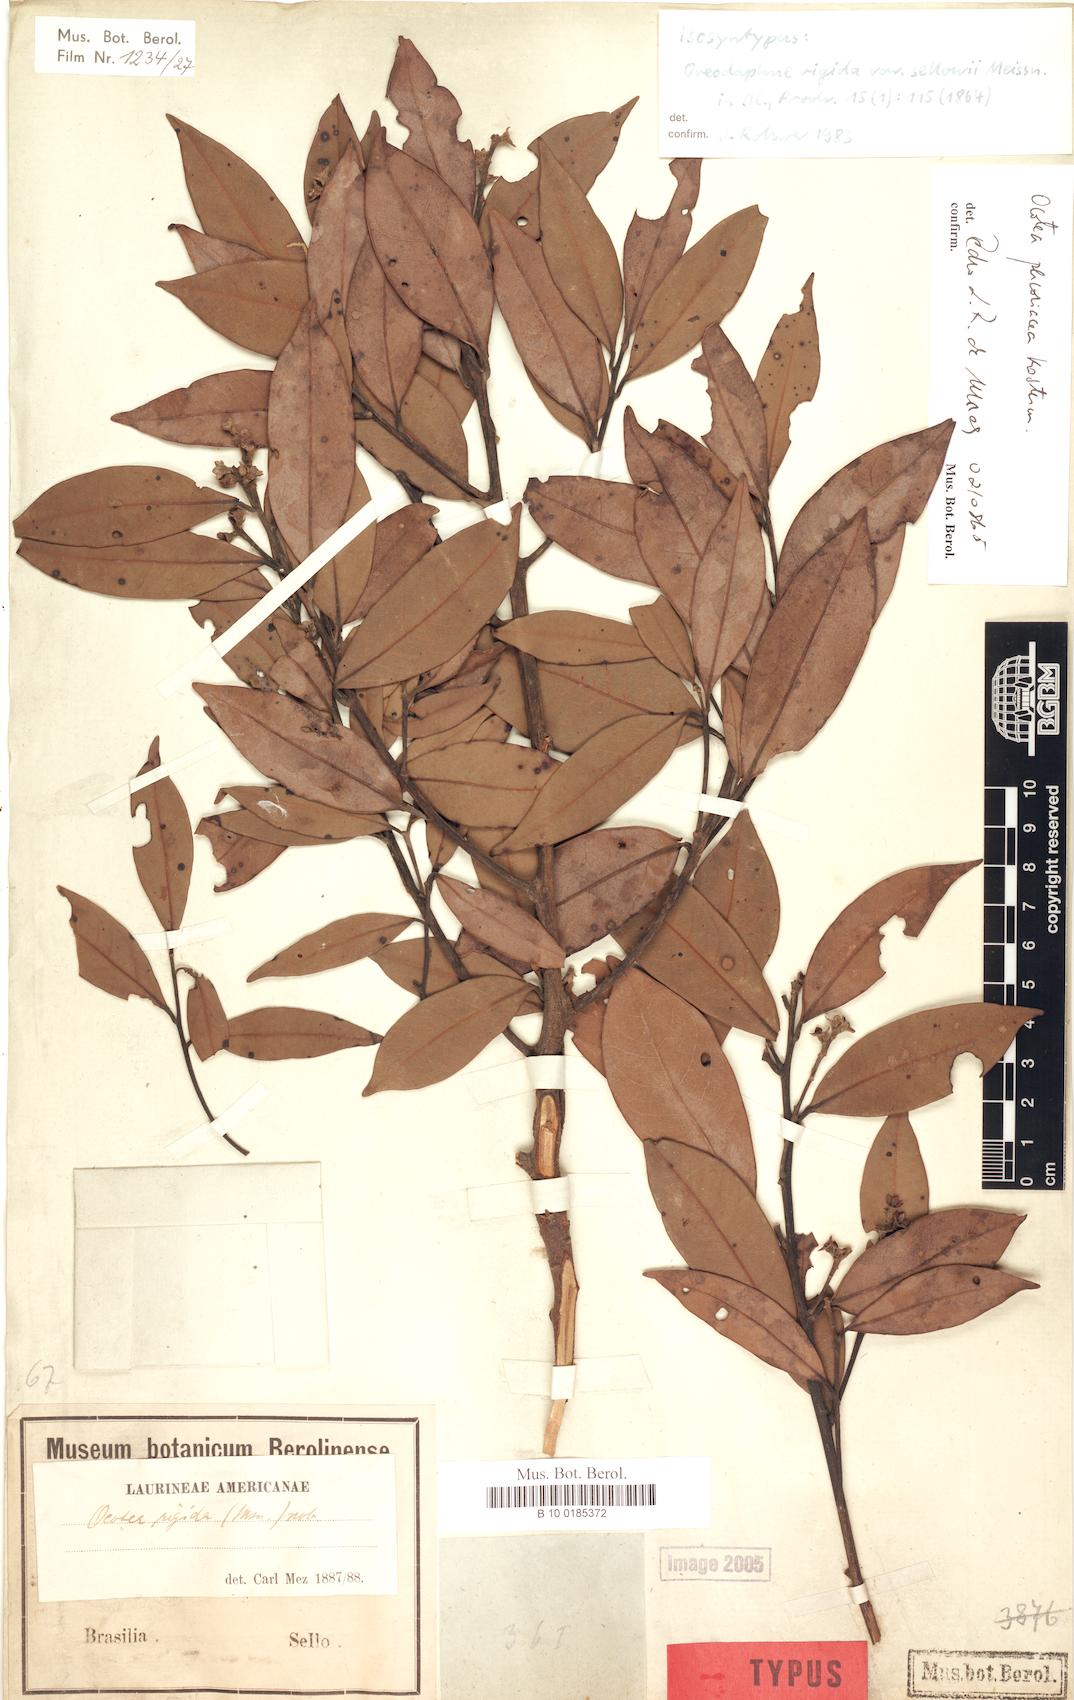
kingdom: Plantae
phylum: Tracheophyta
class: Magnoliopsida
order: Laurales
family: Lauraceae
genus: Ocotea
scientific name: Ocotea percoriacea
